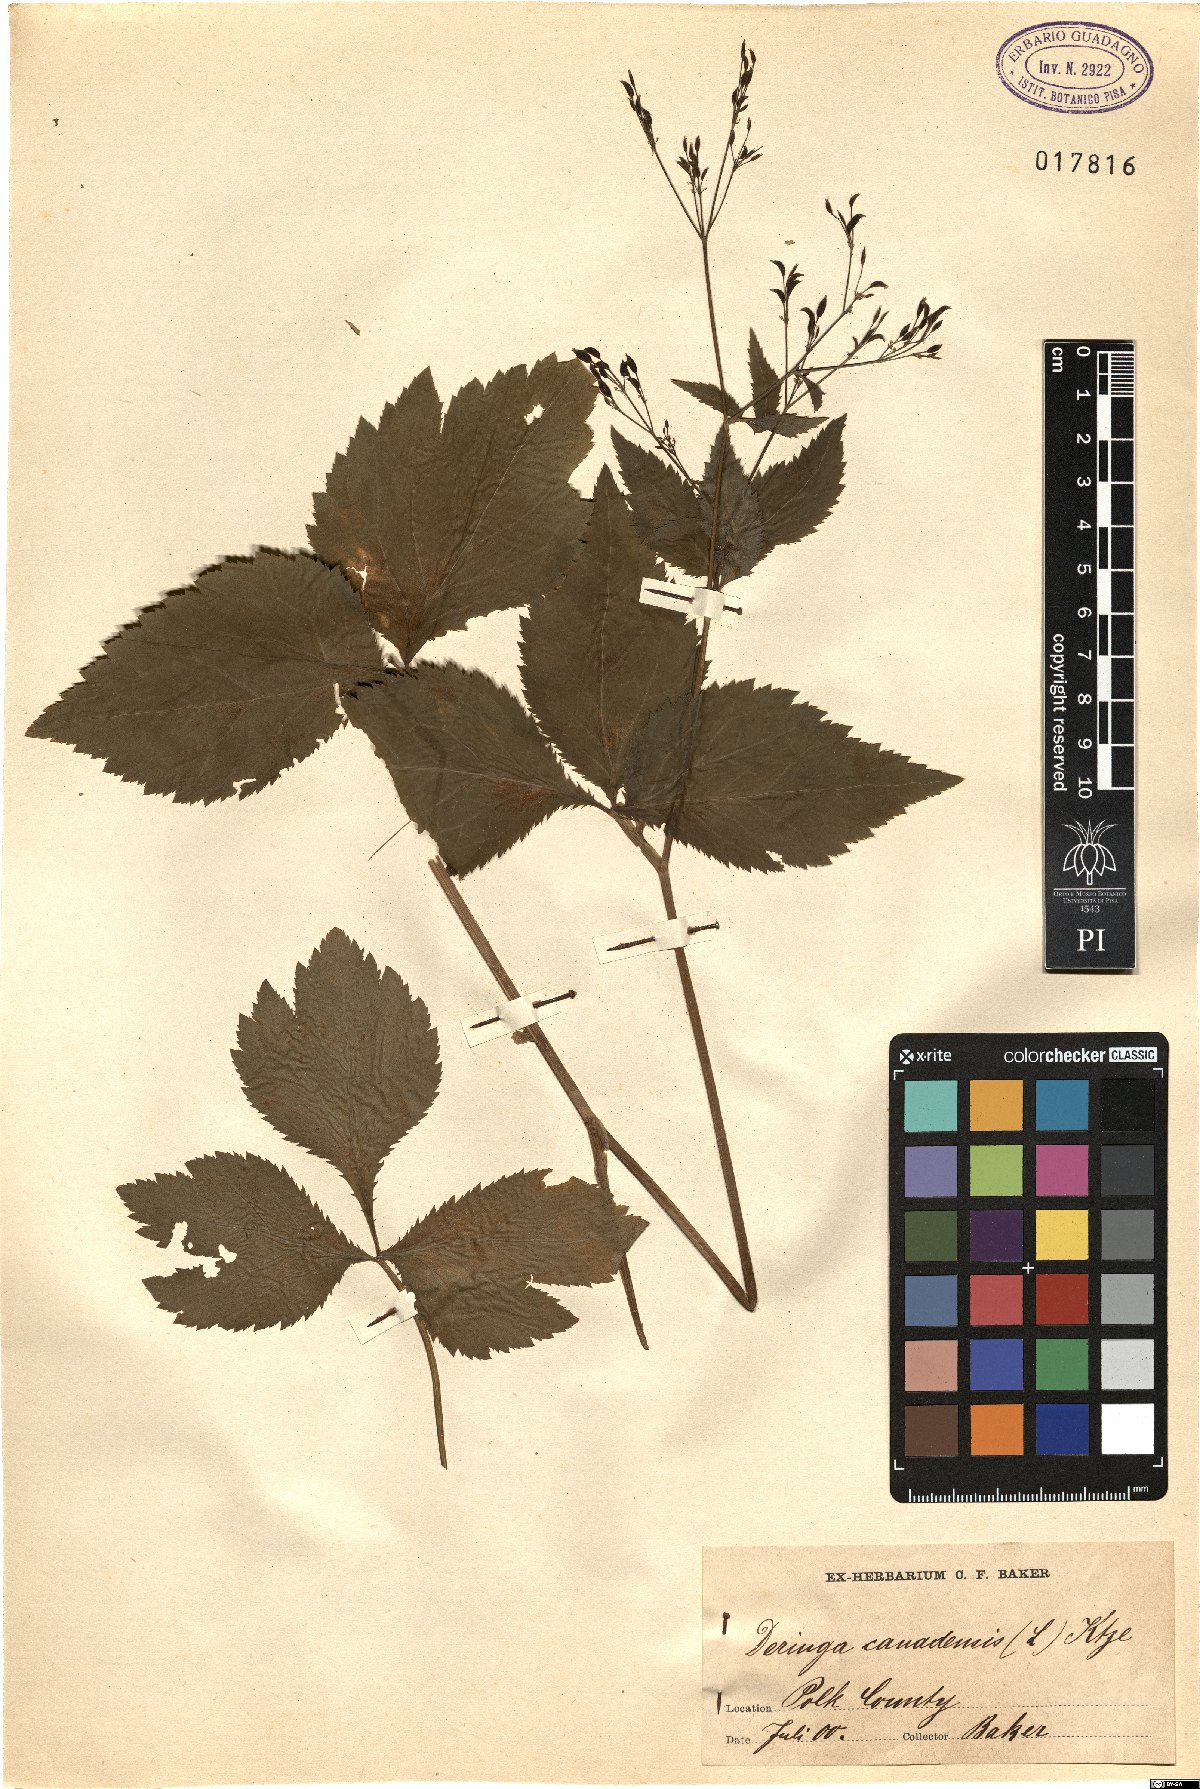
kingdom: Plantae
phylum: Tracheophyta
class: Magnoliopsida
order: Apiales
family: Apiaceae
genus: Cryptotaenia
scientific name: Cryptotaenia canadensis
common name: Honewort
